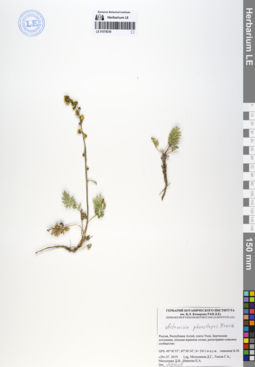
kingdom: Plantae
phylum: Tracheophyta
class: Magnoliopsida
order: Asterales
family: Asteraceae
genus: Artemisia
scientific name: Artemisia phaeolepis
